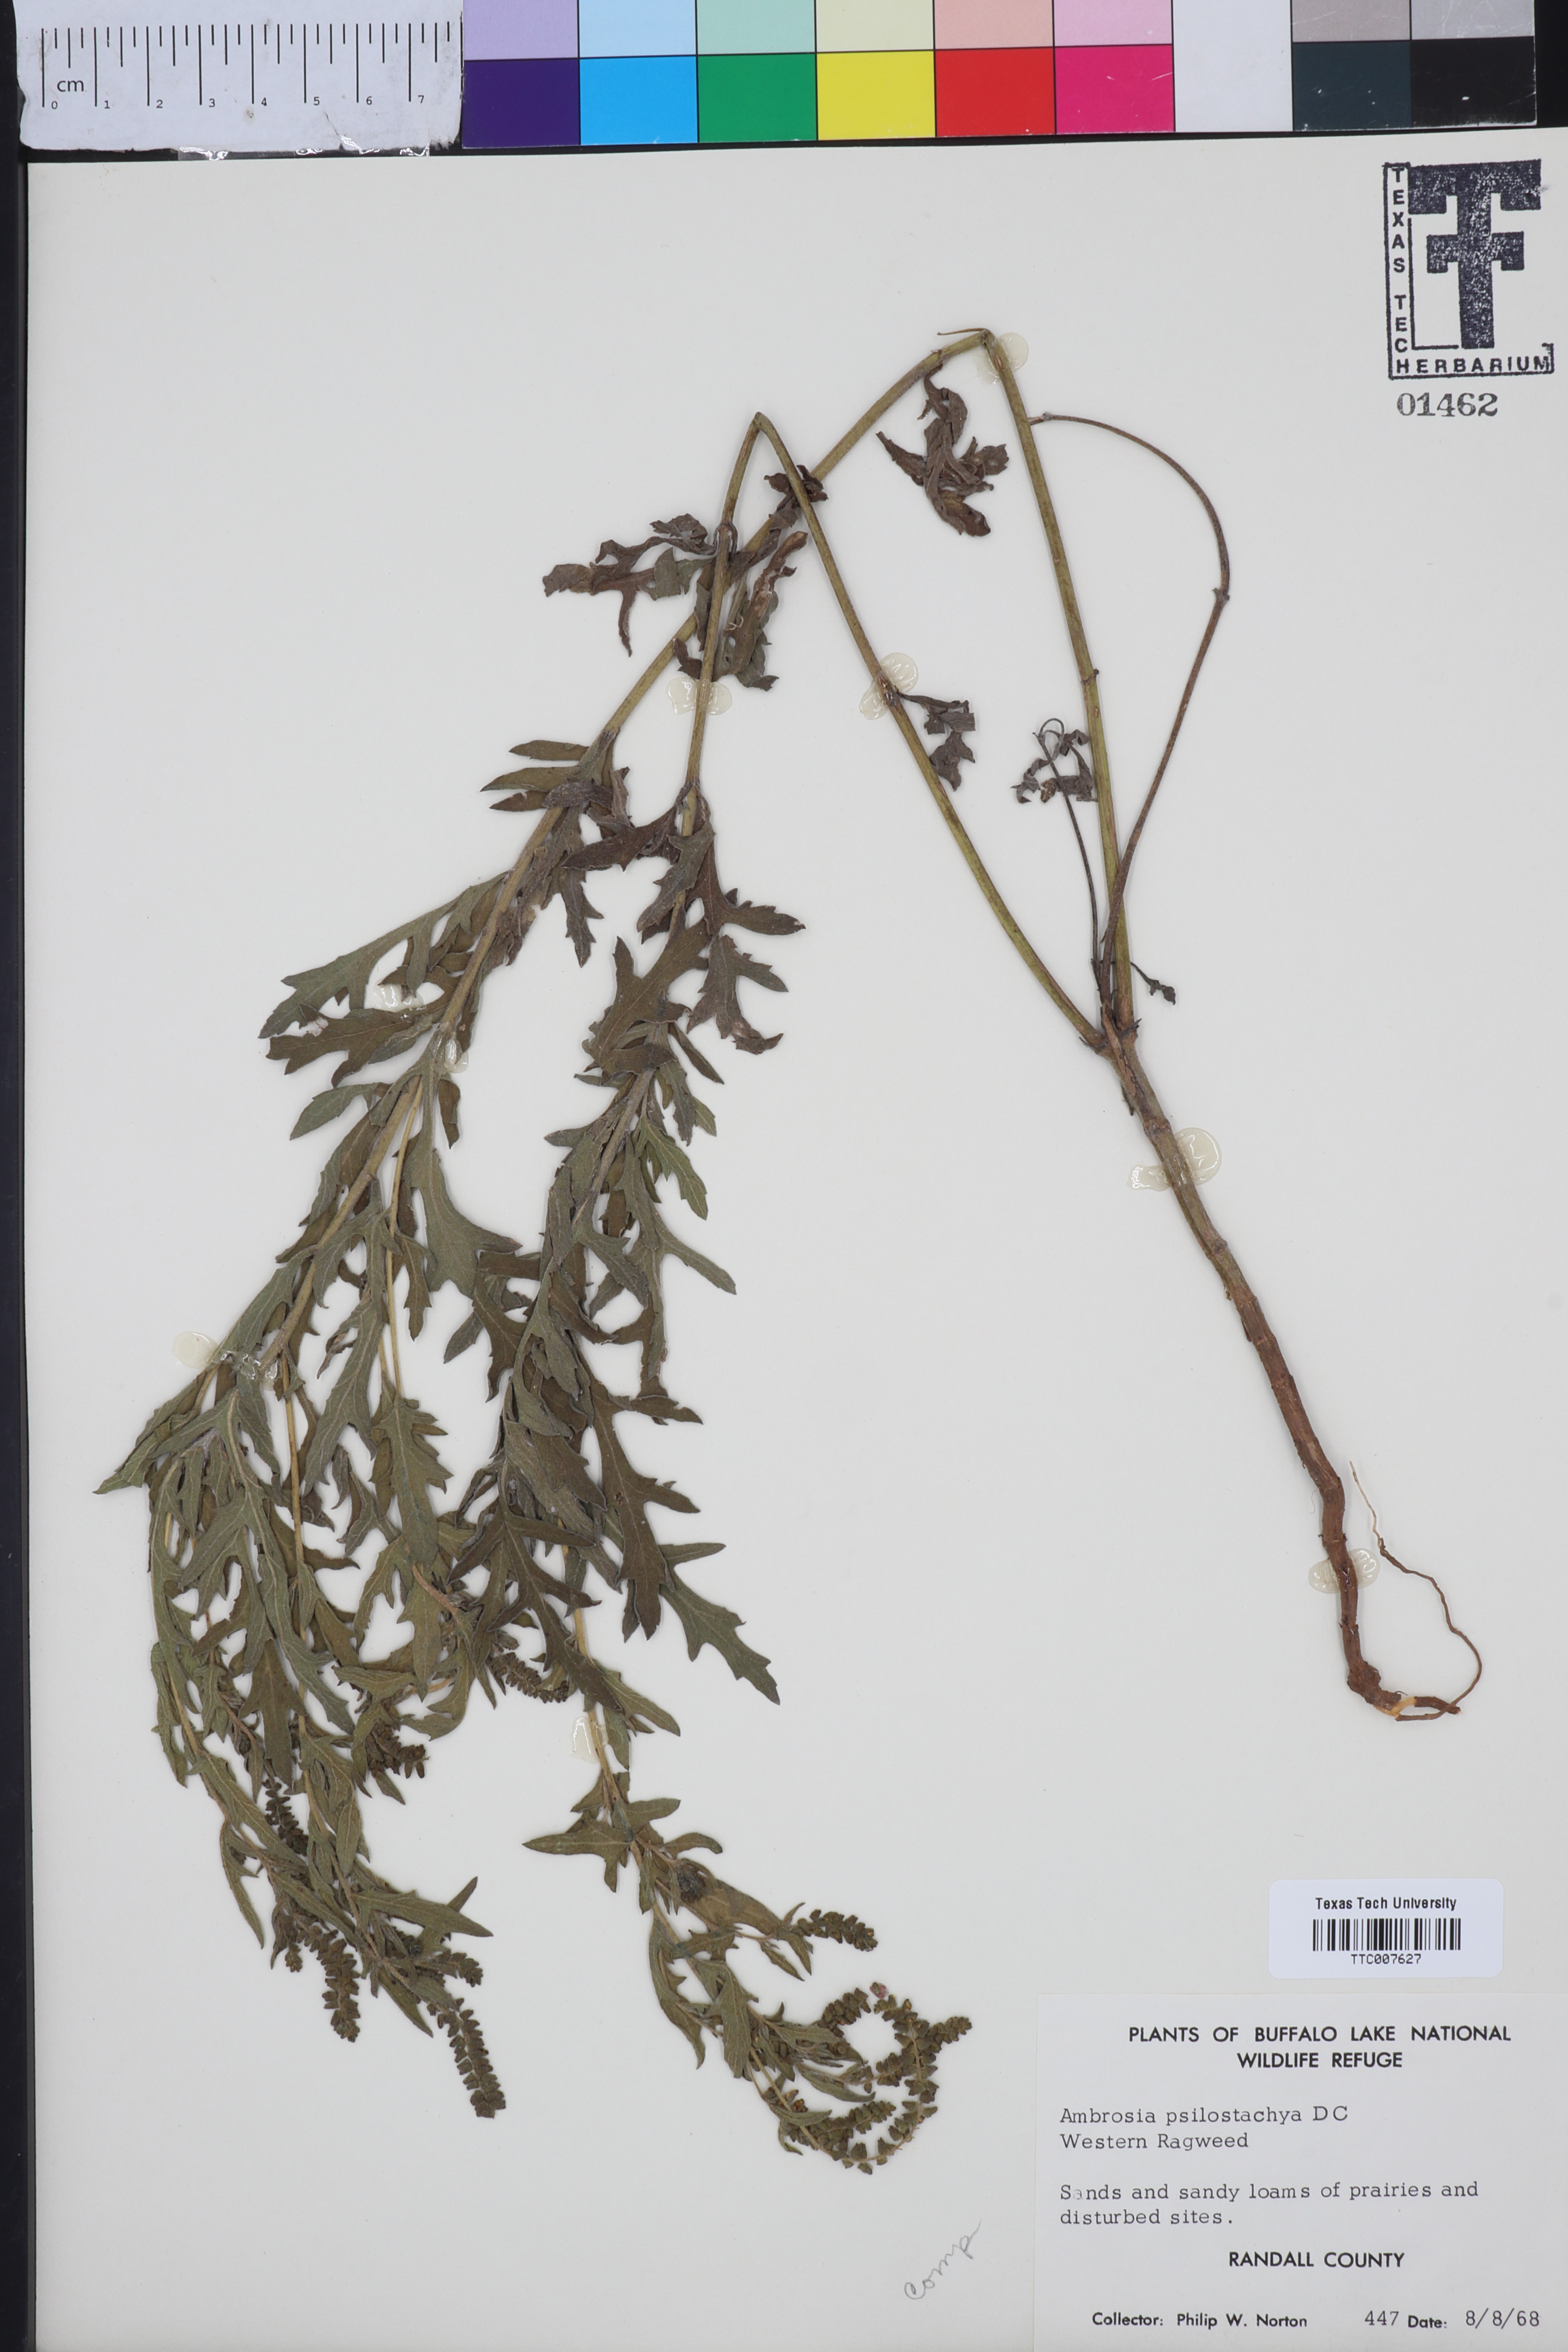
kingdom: Plantae
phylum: Tracheophyta
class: Magnoliopsida
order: Asterales
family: Asteraceae
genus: Ambrosia
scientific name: Ambrosia psilostachya
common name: Perennial ragweed
